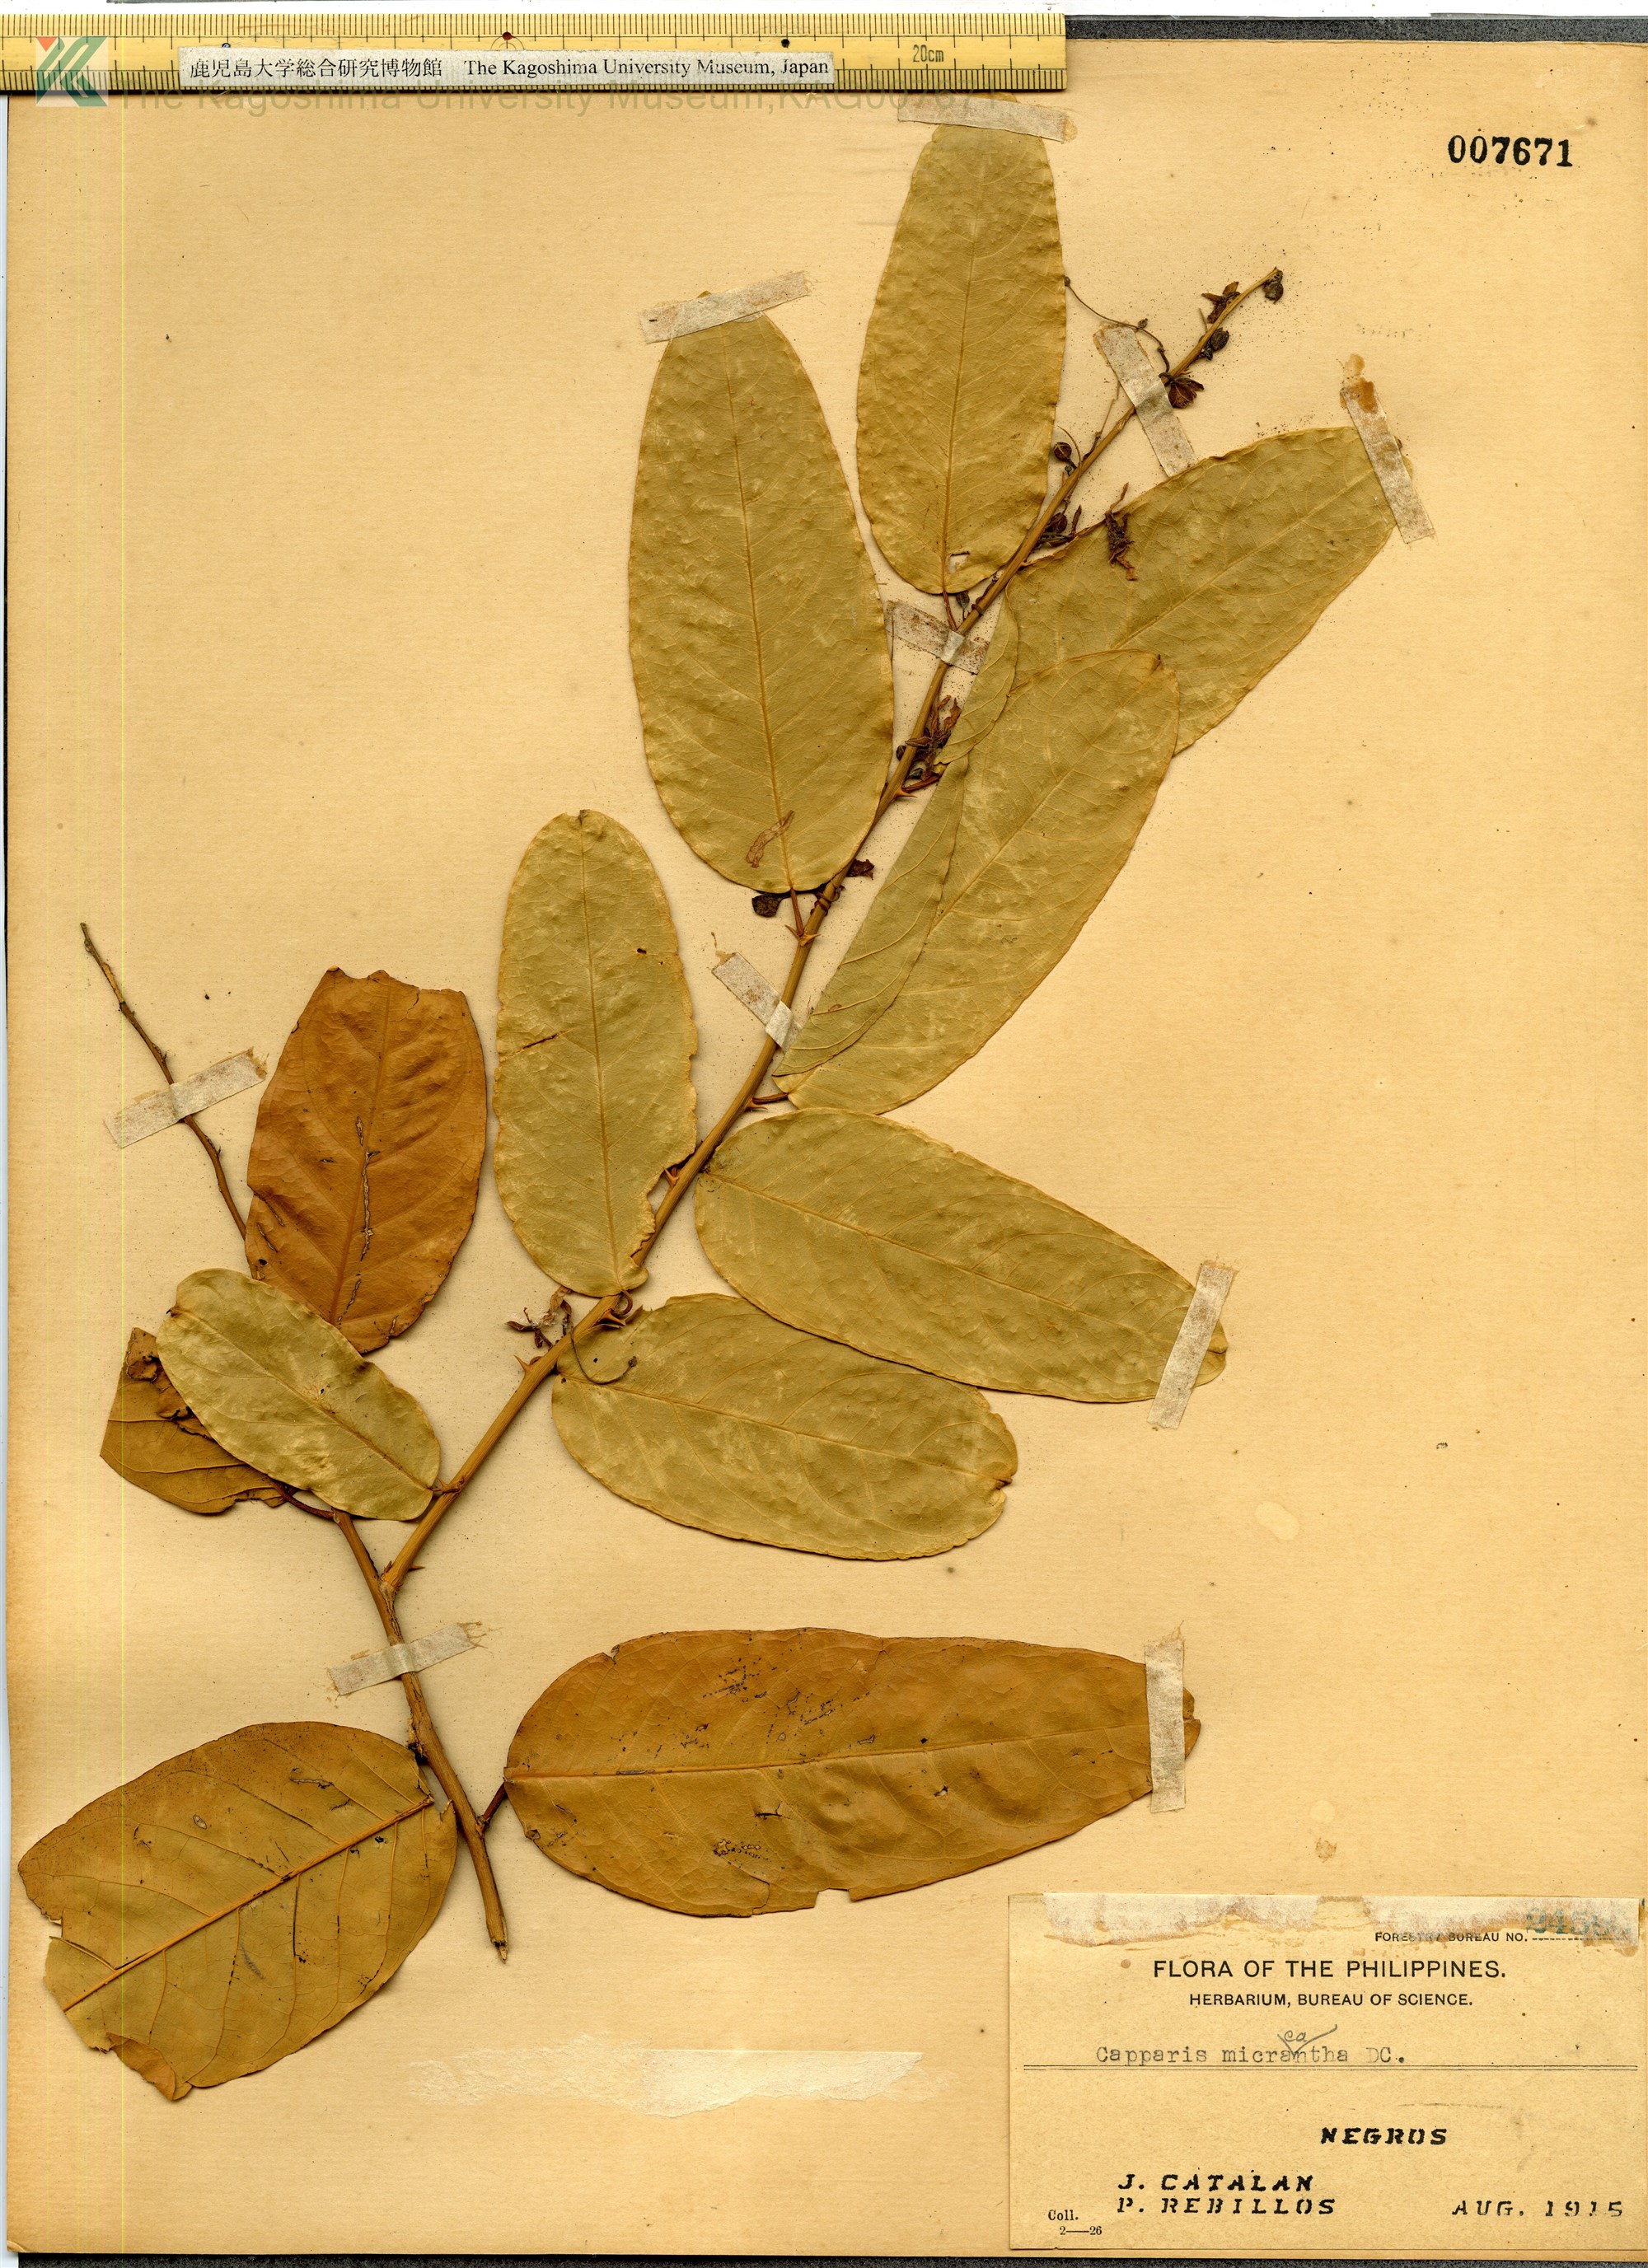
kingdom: Plantae
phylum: Tracheophyta
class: Magnoliopsida
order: Brassicales
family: Capparaceae
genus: Capparis
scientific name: Capparis lanceolaris
